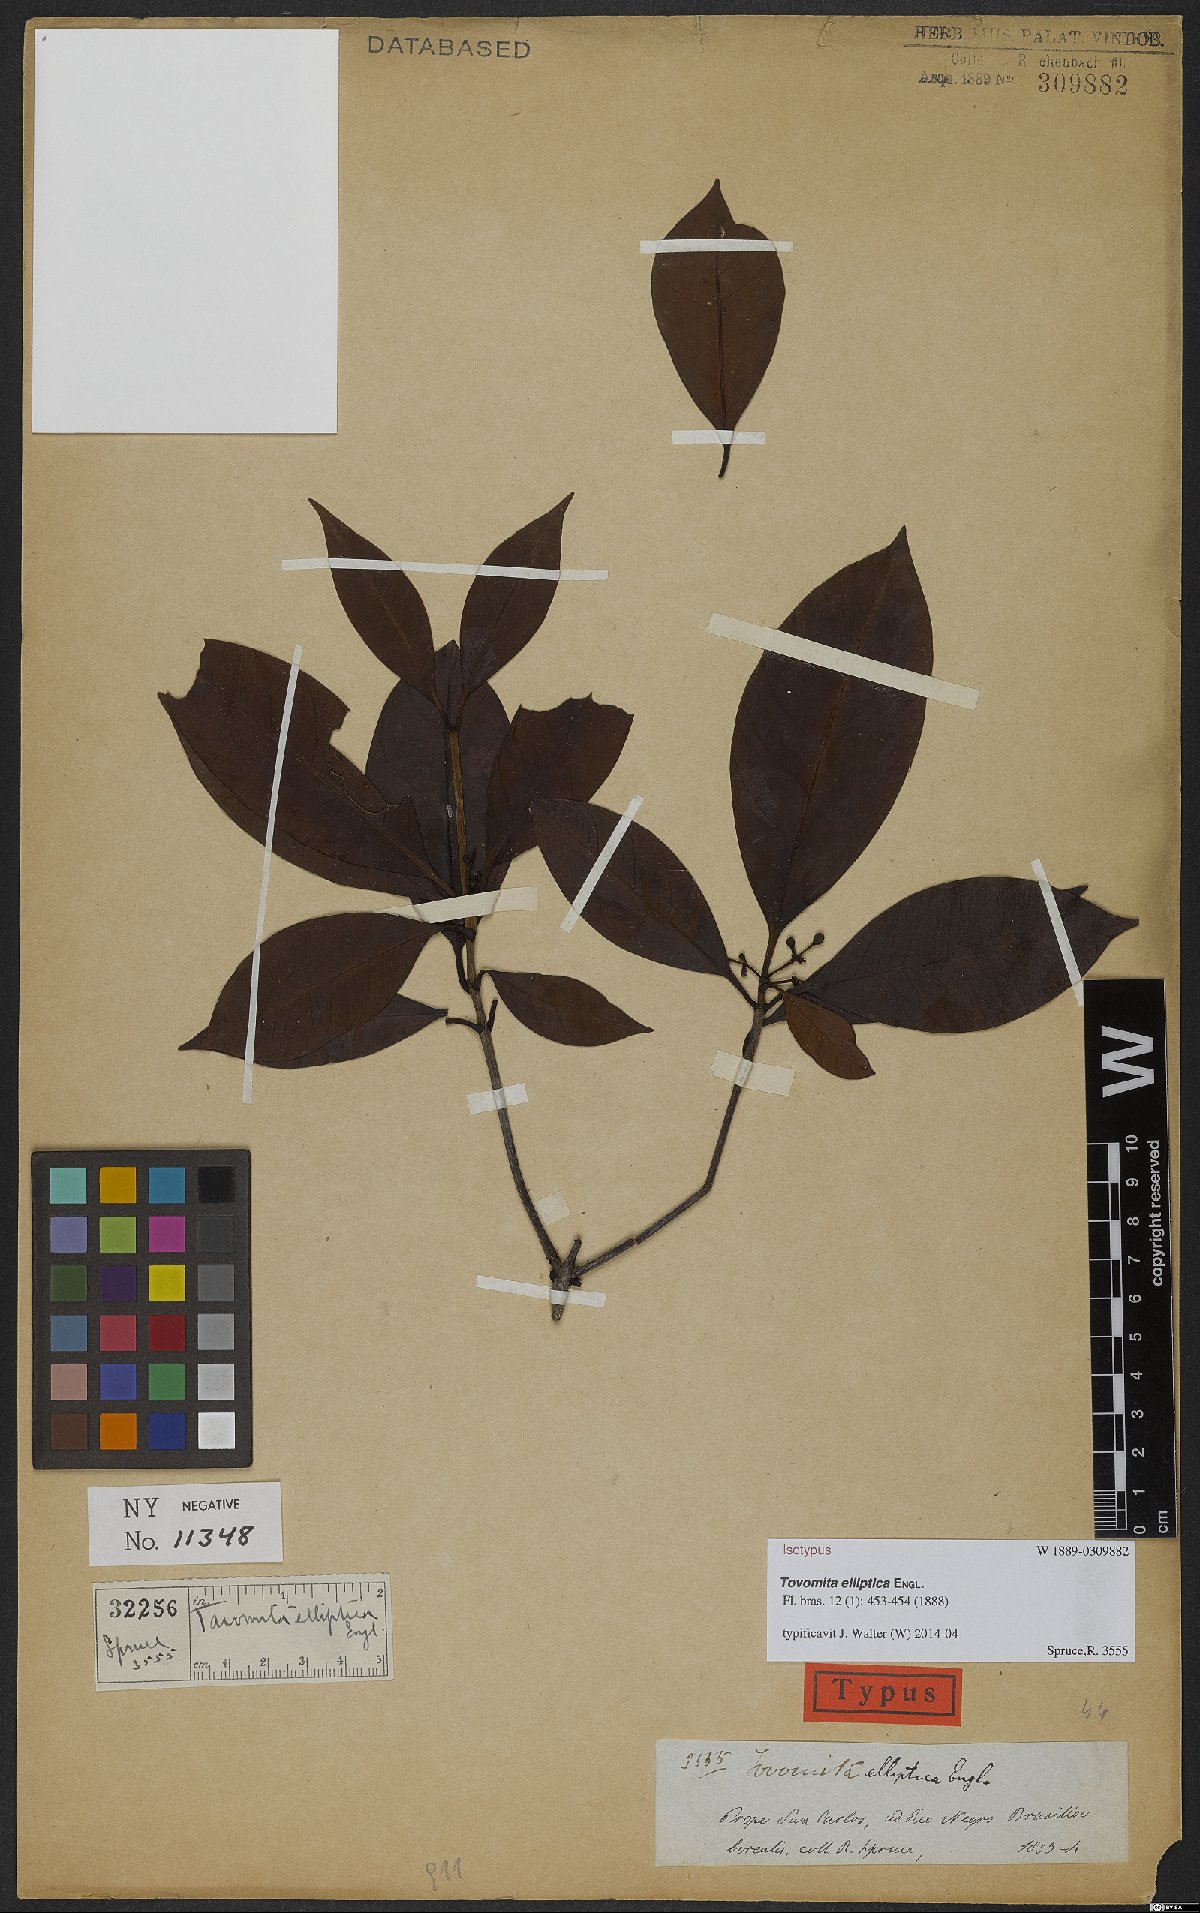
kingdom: Plantae
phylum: Tracheophyta
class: Magnoliopsida
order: Malpighiales
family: Clusiaceae
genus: Tovomita
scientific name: Tovomita elliptica
